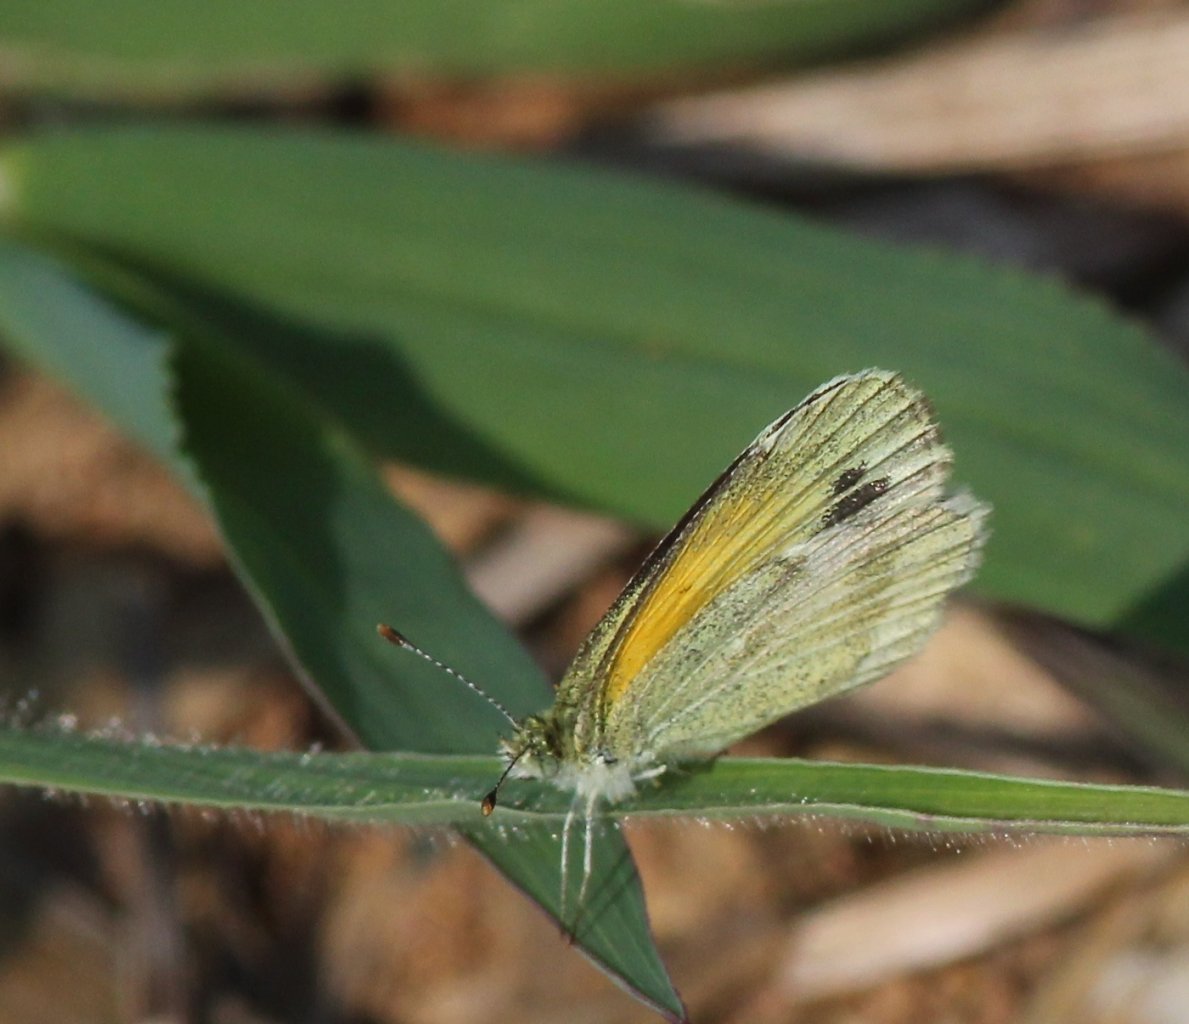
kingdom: Animalia
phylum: Arthropoda
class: Insecta
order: Lepidoptera
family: Pieridae
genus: Nathalis
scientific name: Nathalis iole
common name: Dainty Sulphur
